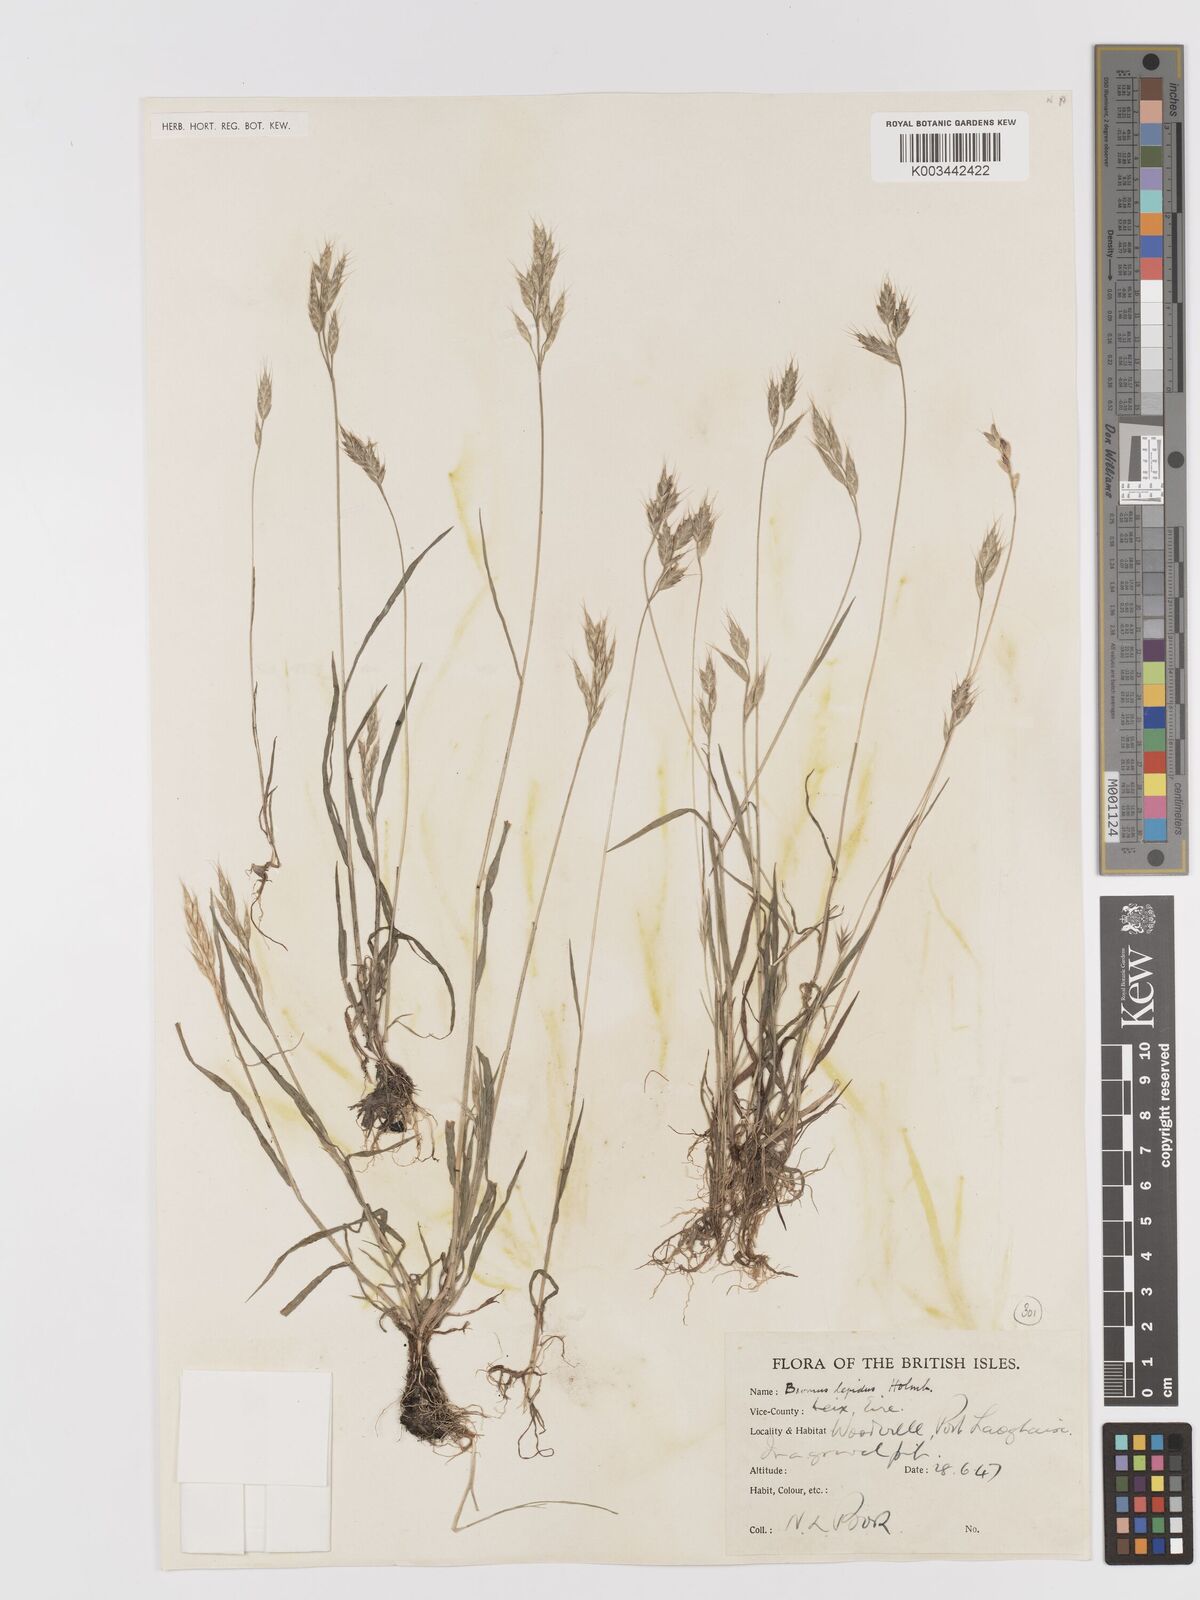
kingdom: Plantae
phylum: Tracheophyta
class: Liliopsida
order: Poales
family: Poaceae
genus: Bromus
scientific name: Bromus lepidus
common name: Slender soft-brome
